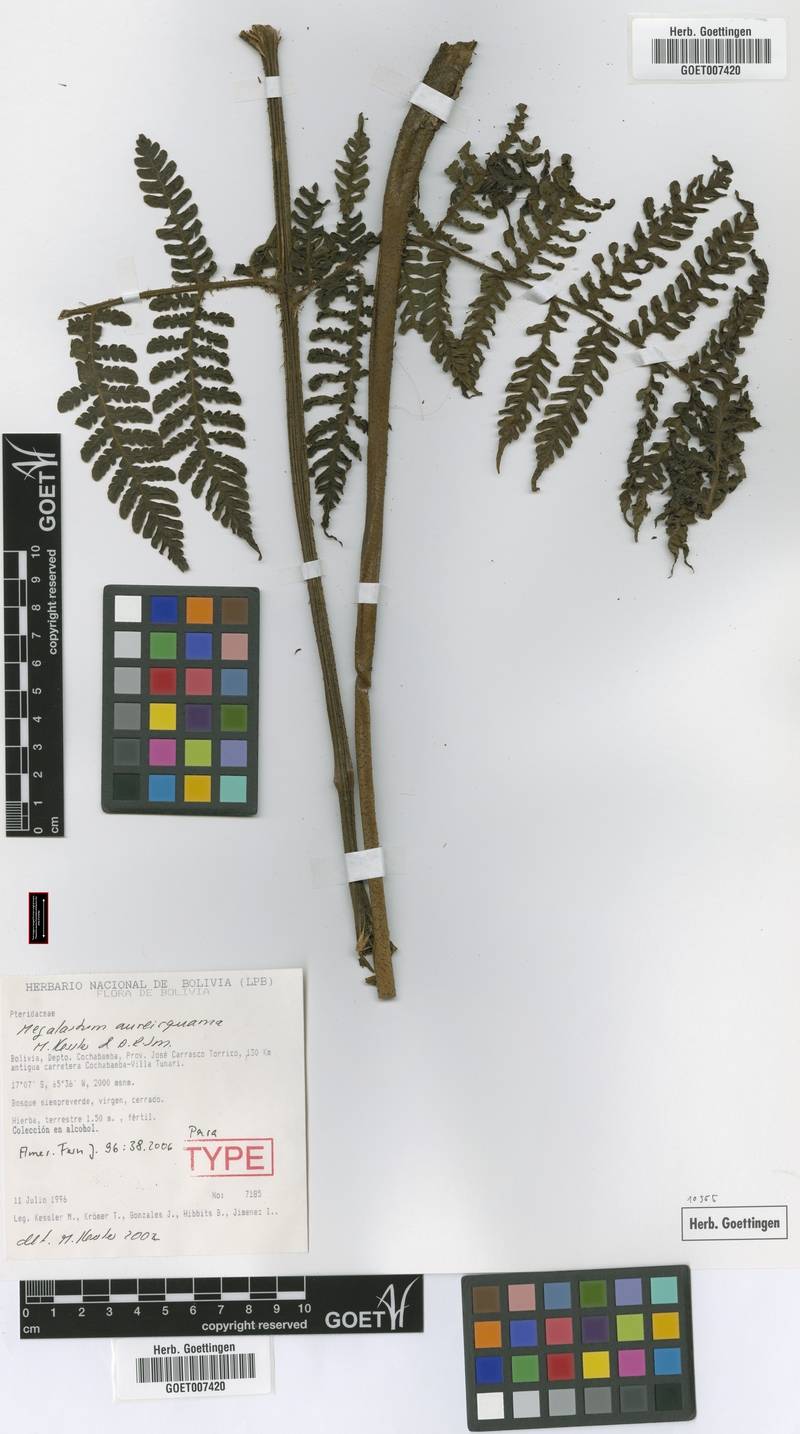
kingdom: Plantae
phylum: Tracheophyta
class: Polypodiopsida
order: Polypodiales
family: Dryopteridaceae
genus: Megalastrum
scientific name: Megalastrum aureisquama
